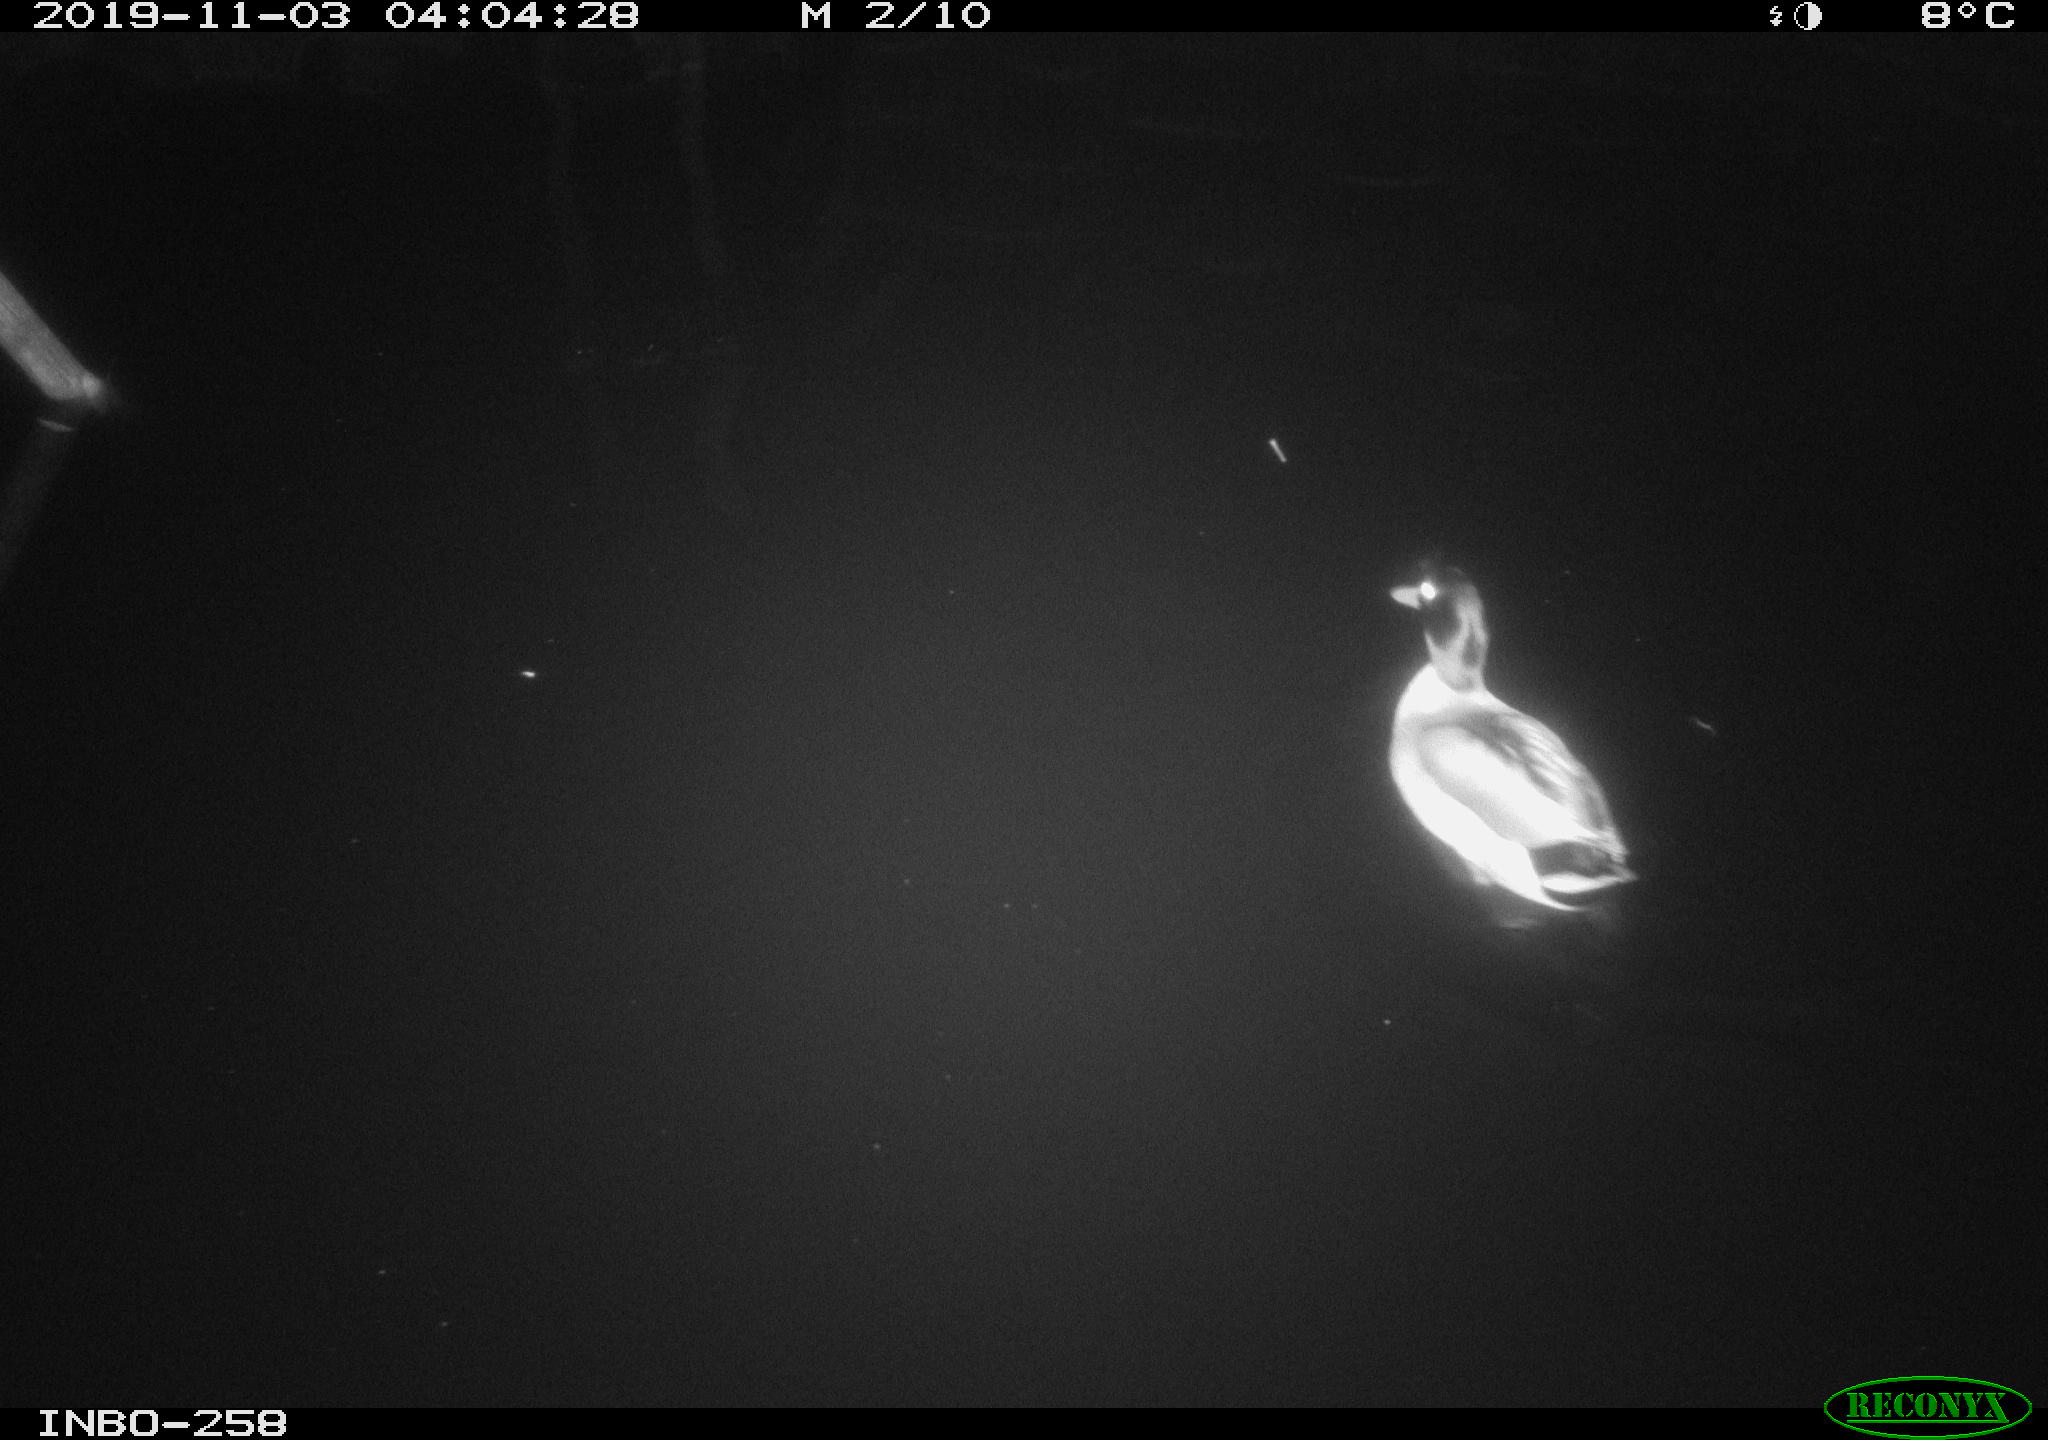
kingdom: Animalia
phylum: Chordata
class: Aves
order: Anseriformes
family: Anatidae
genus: Anas
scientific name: Anas platyrhynchos
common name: Mallard
